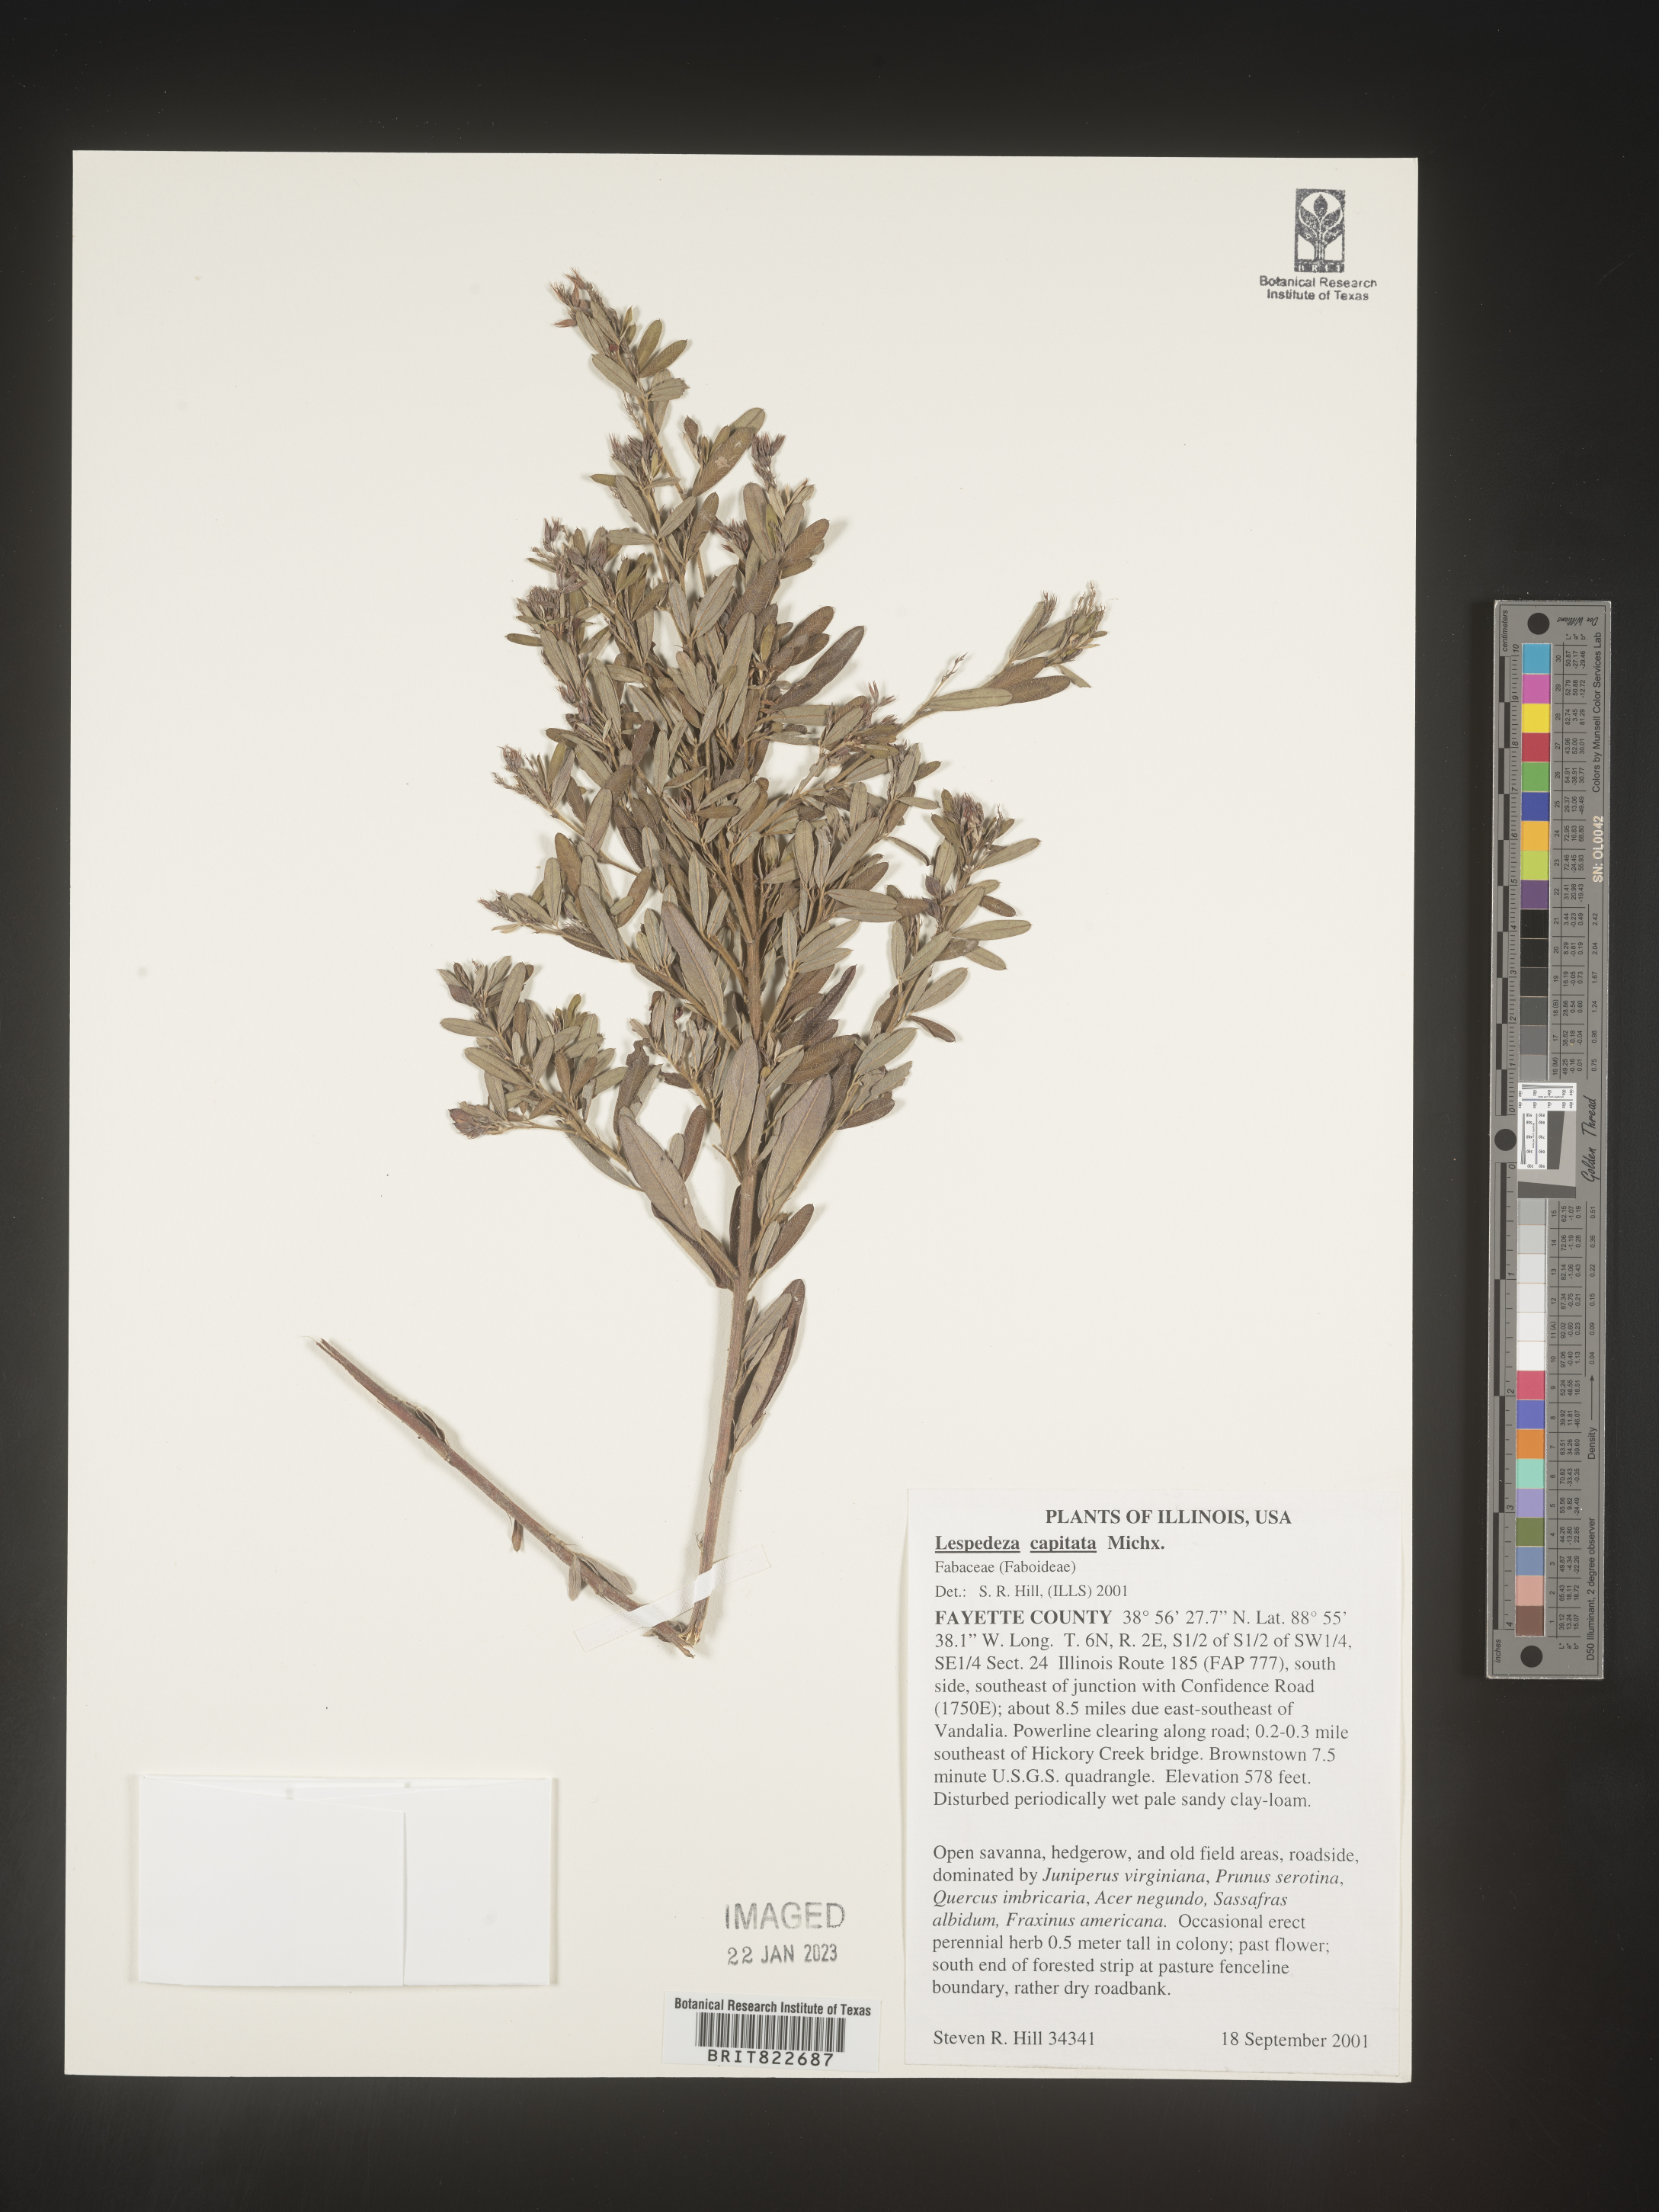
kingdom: Plantae
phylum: Tracheophyta
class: Magnoliopsida
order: Fabales
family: Fabaceae
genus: Lespedeza
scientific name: Lespedeza capitata
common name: Dusty clover
